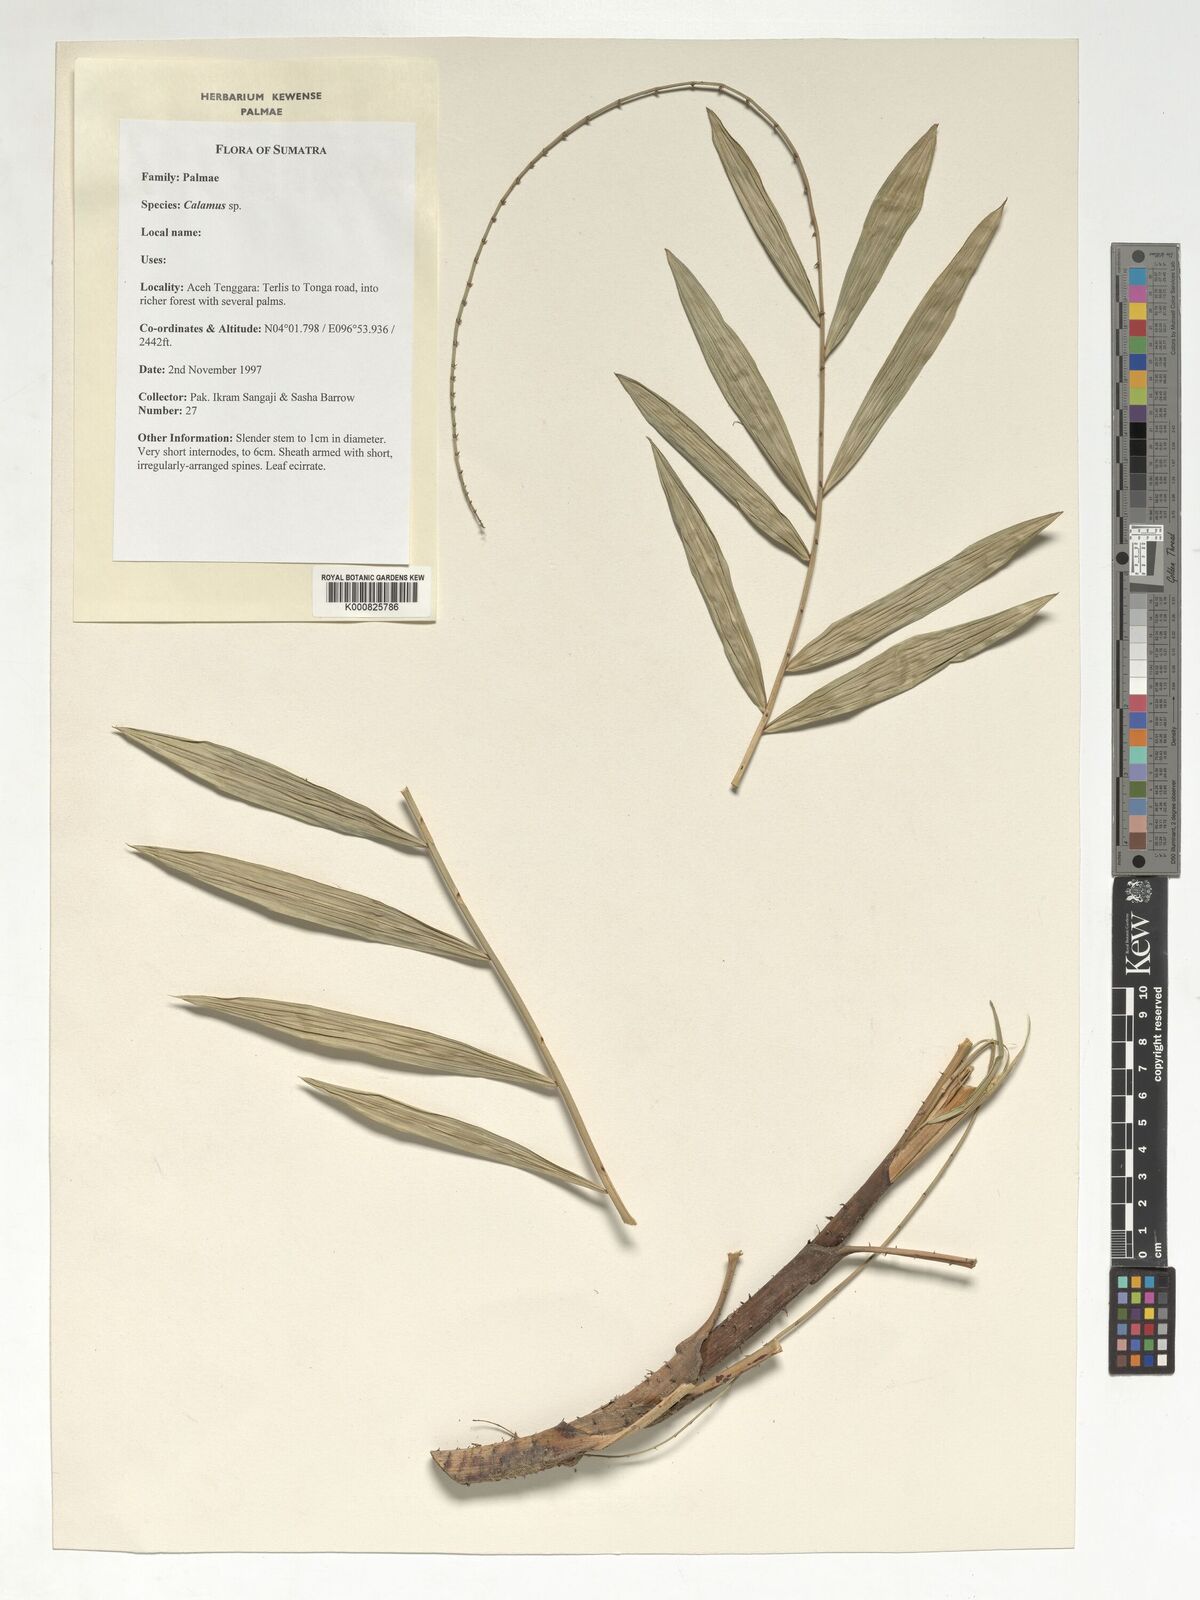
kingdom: Plantae
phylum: Tracheophyta
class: Liliopsida
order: Arecales
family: Arecaceae
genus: Calamus
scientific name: Calamus
